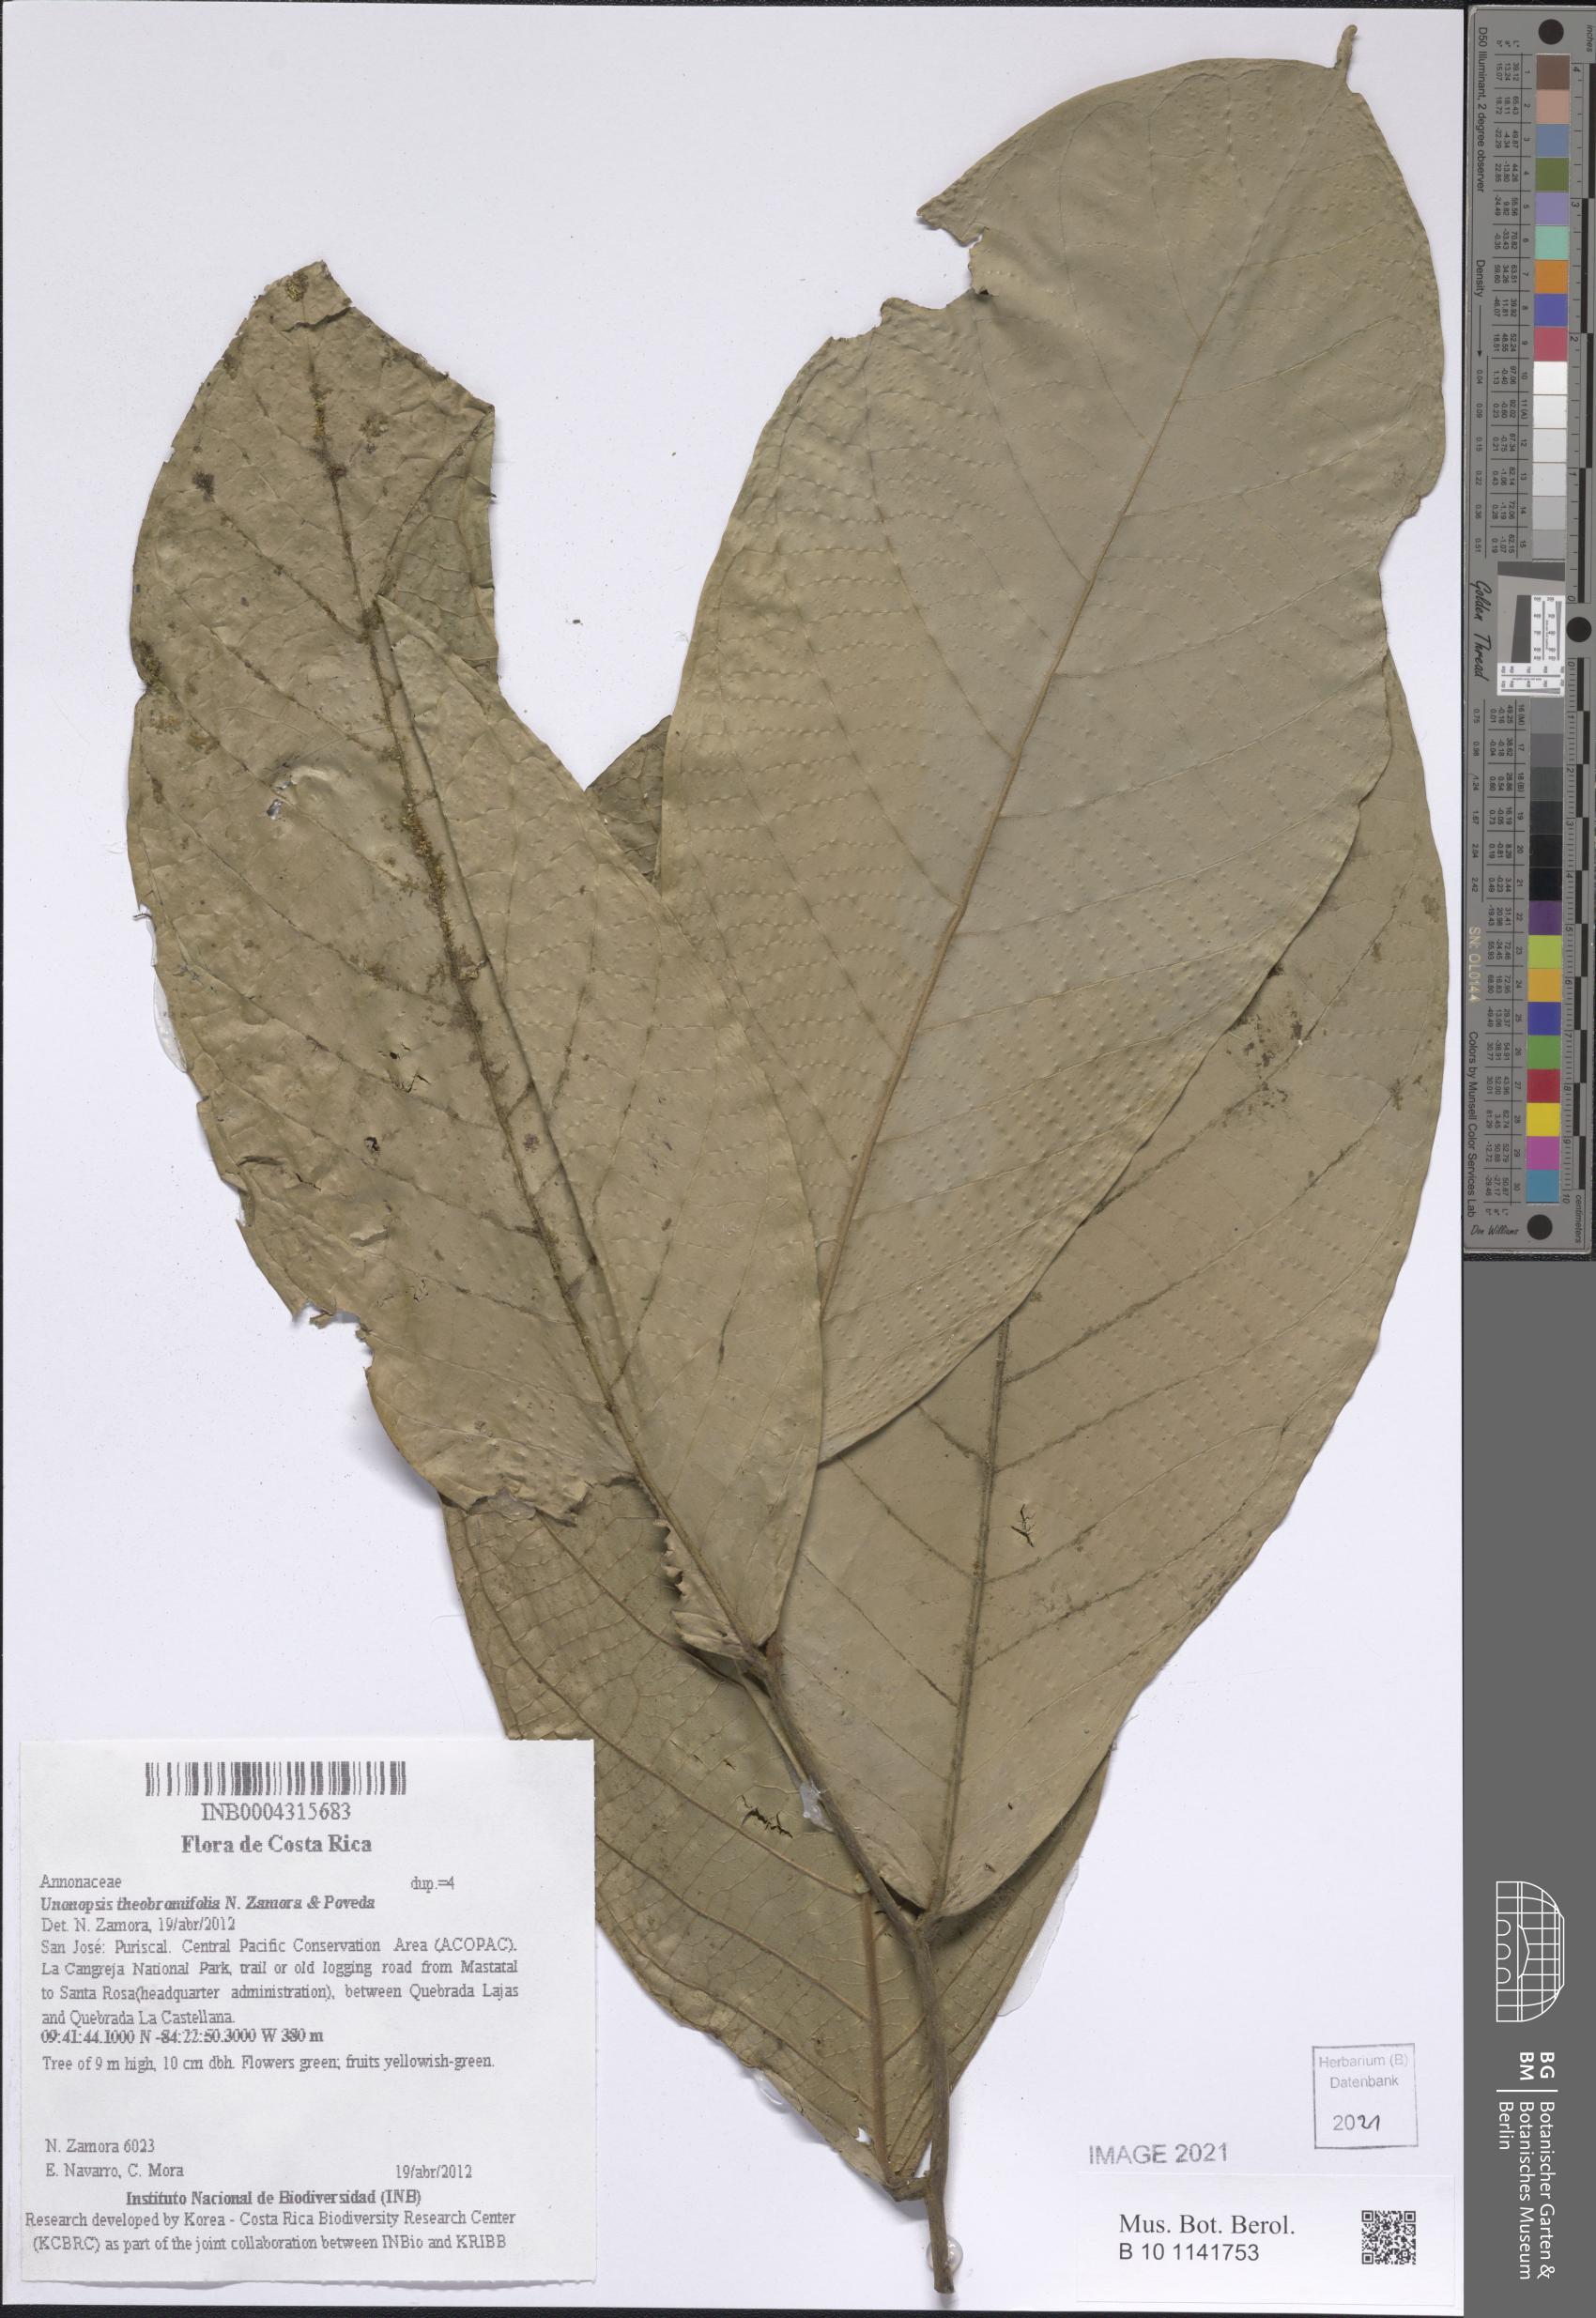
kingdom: Plantae
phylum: Tracheophyta
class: Magnoliopsida
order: Magnoliales
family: Annonaceae
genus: Unonopsis
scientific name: Unonopsis theobromifolia
